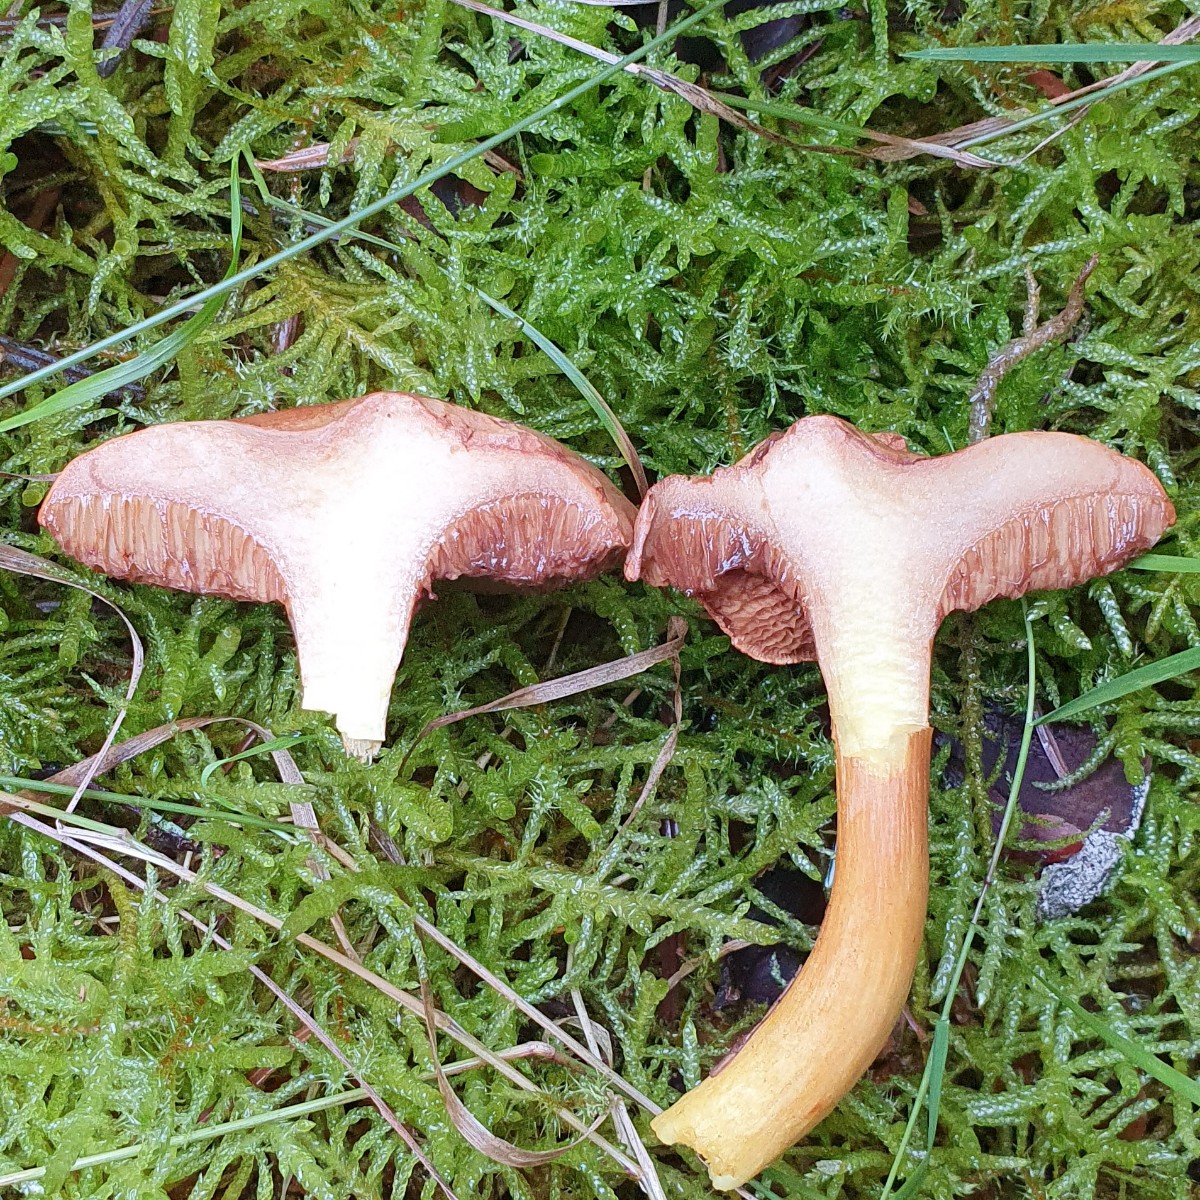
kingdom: Fungi
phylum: Basidiomycota
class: Agaricomycetes
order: Boletales
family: Boletaceae
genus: Chalciporus
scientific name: Chalciporus piperatus
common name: peberrørhat
